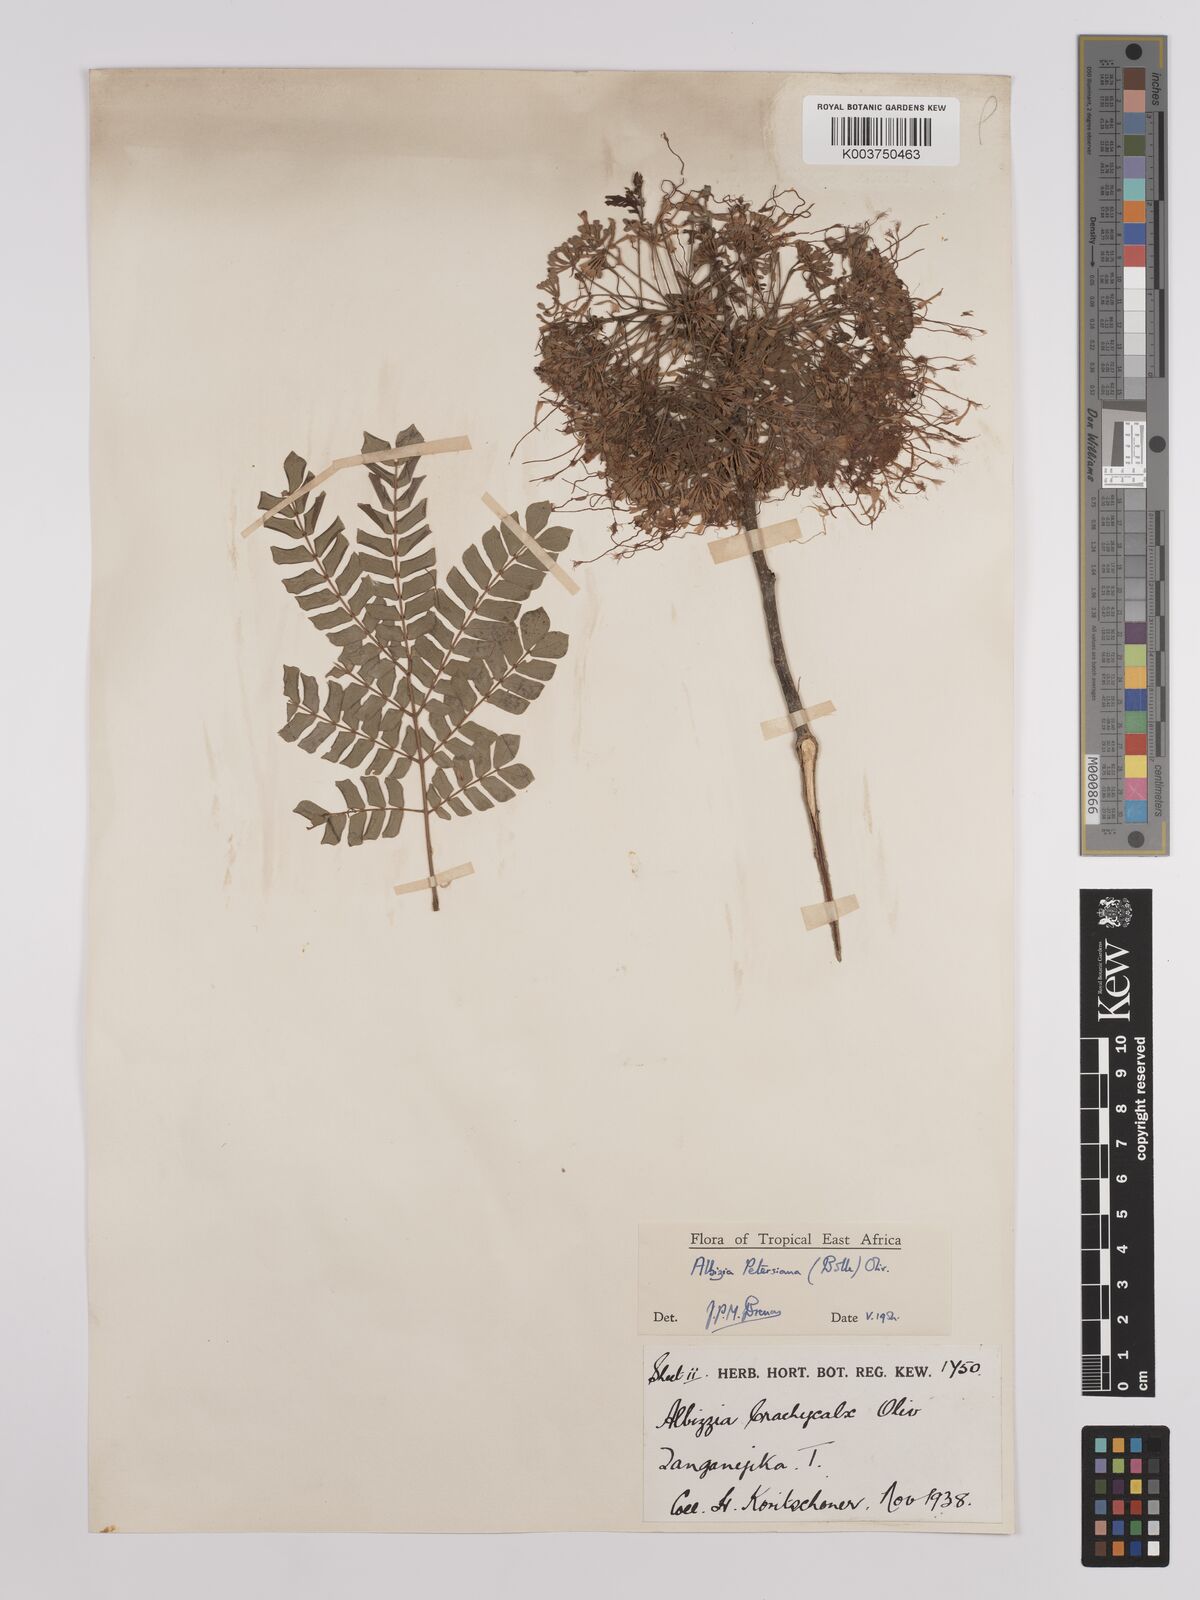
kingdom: Plantae
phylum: Tracheophyta
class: Magnoliopsida
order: Fabales
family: Fabaceae
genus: Albizia
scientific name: Albizia petersiana
